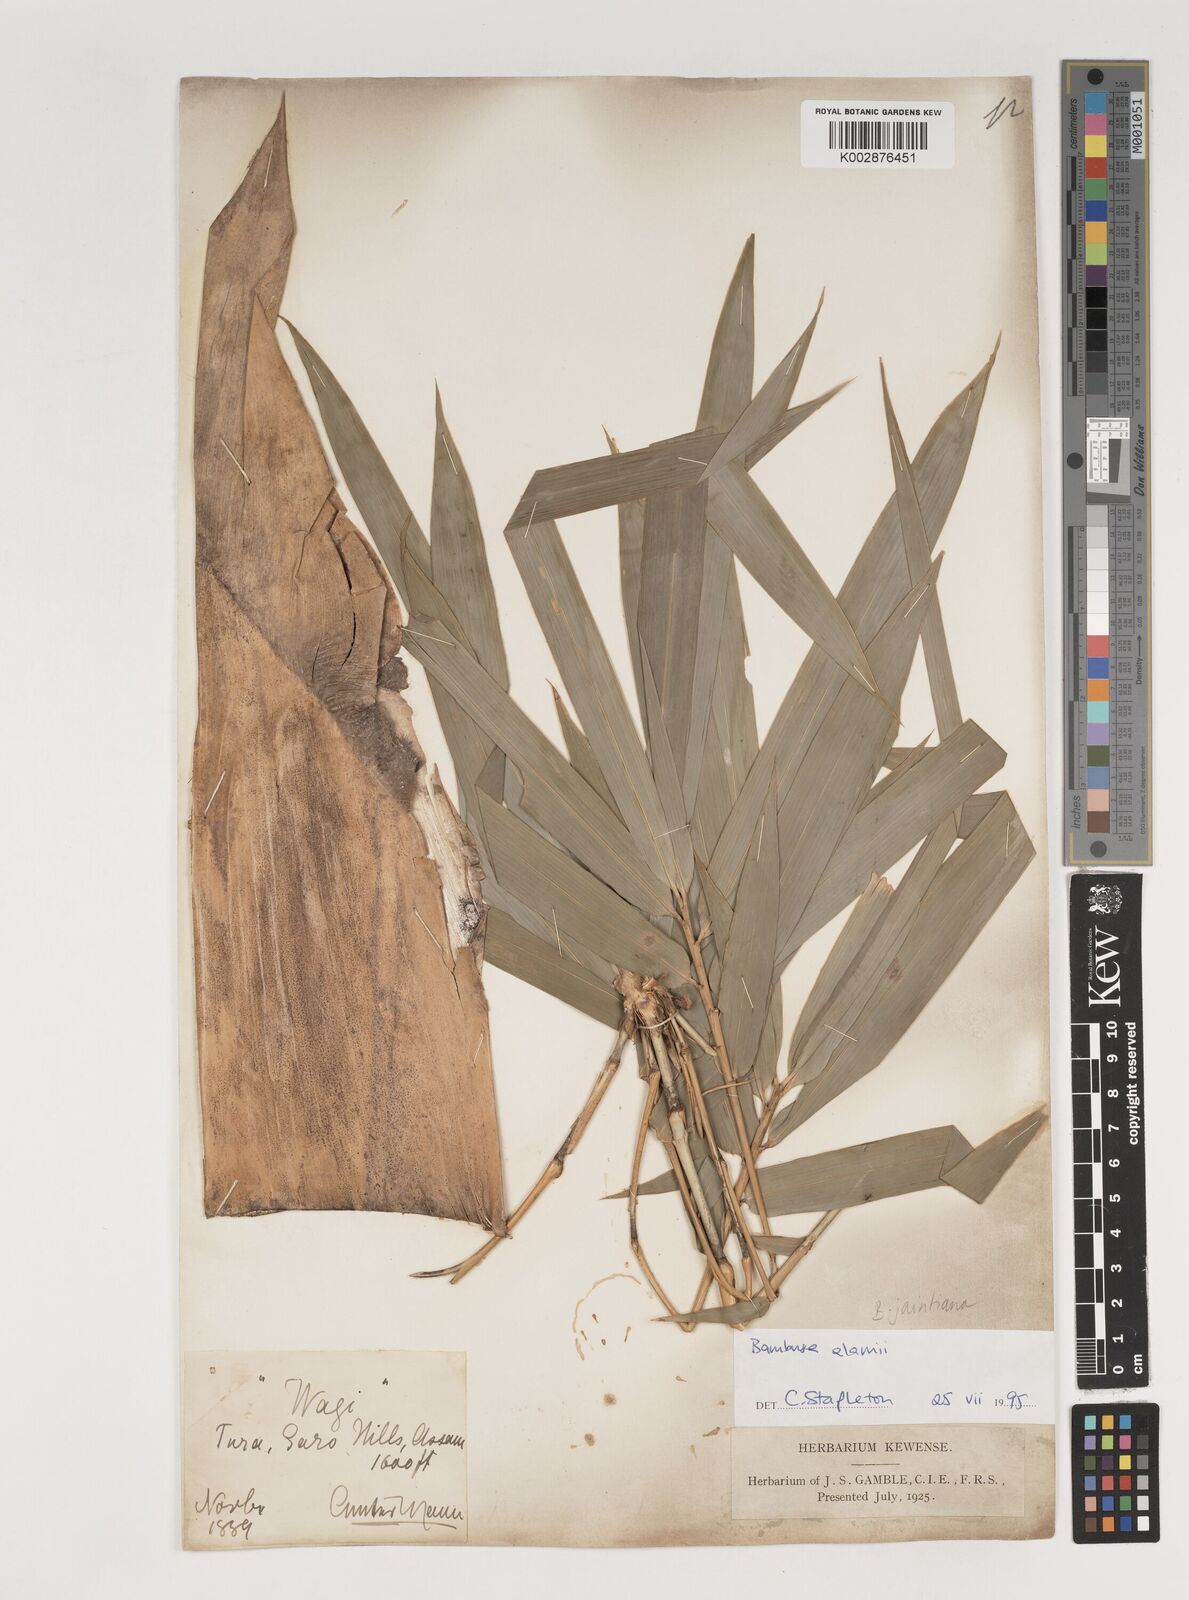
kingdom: Plantae
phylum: Tracheophyta
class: Liliopsida
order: Poales
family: Poaceae
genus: Bambusa
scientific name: Bambusa jaintiana
